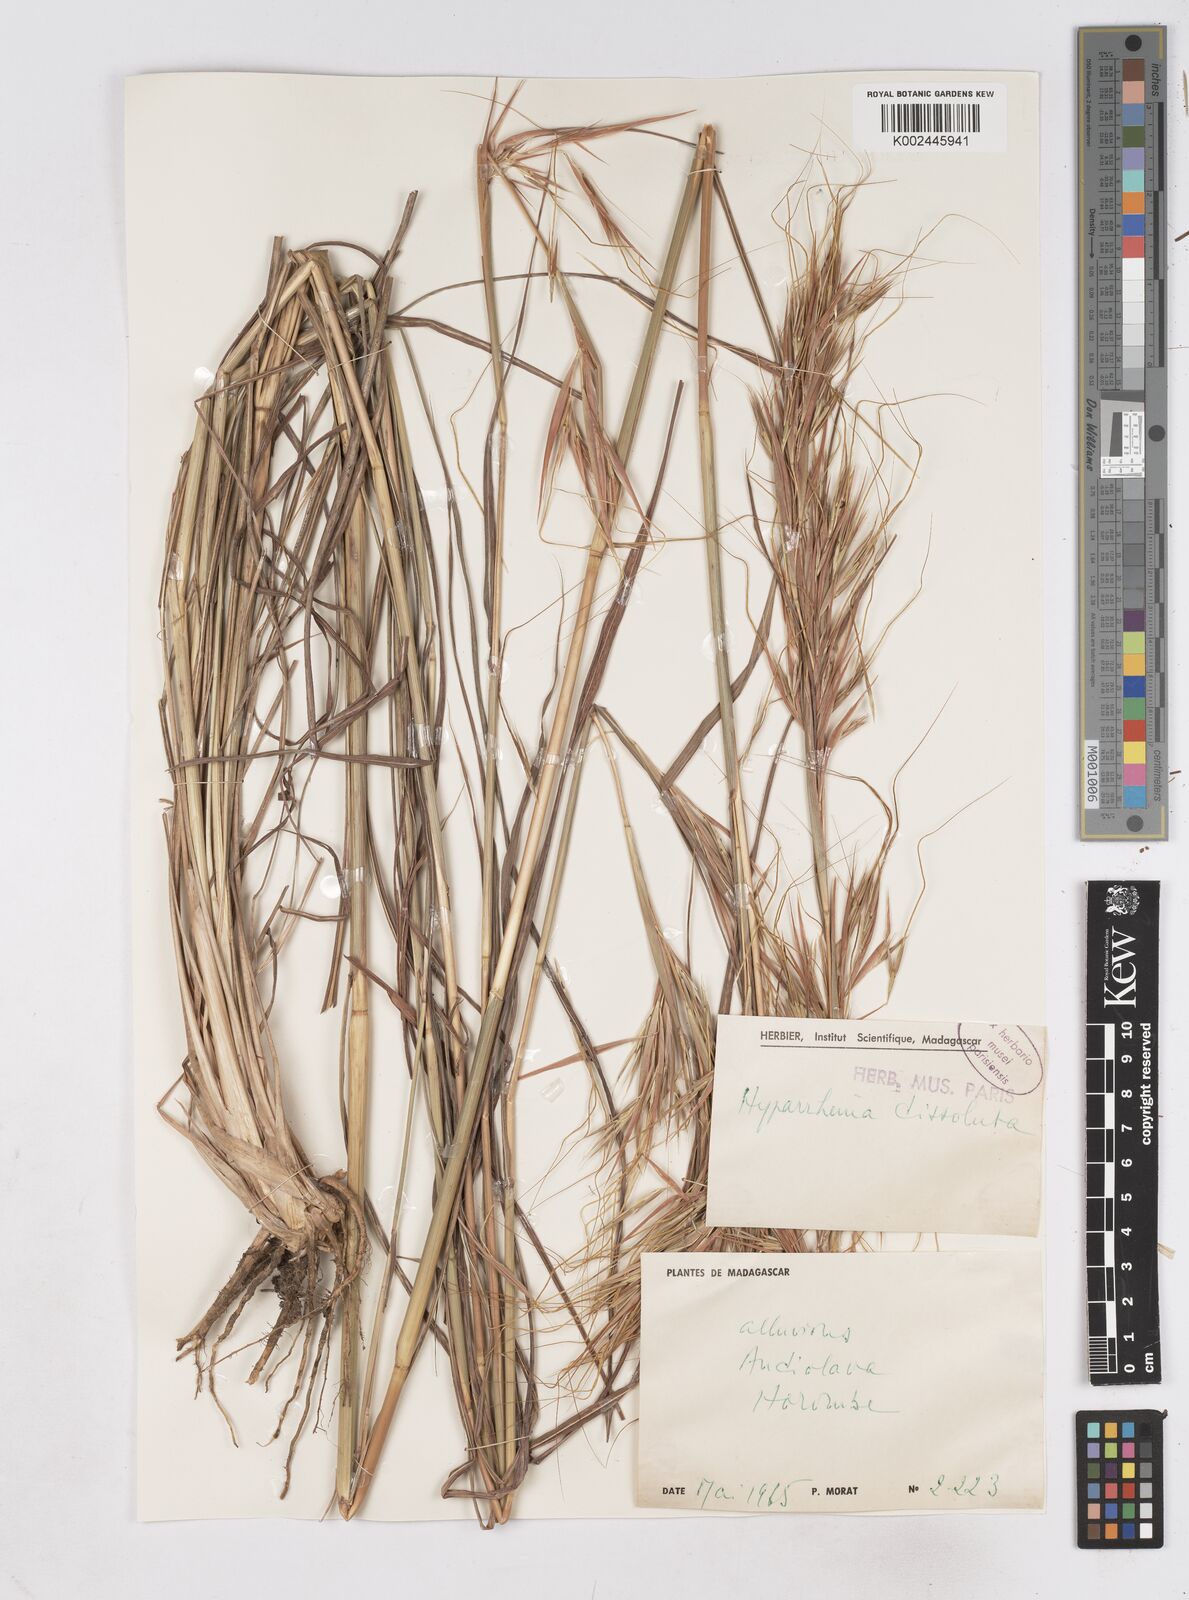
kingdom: Plantae
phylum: Tracheophyta
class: Liliopsida
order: Poales
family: Poaceae
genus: Hyperthelia
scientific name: Hyperthelia dissoluta
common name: Yellow thatching grass
